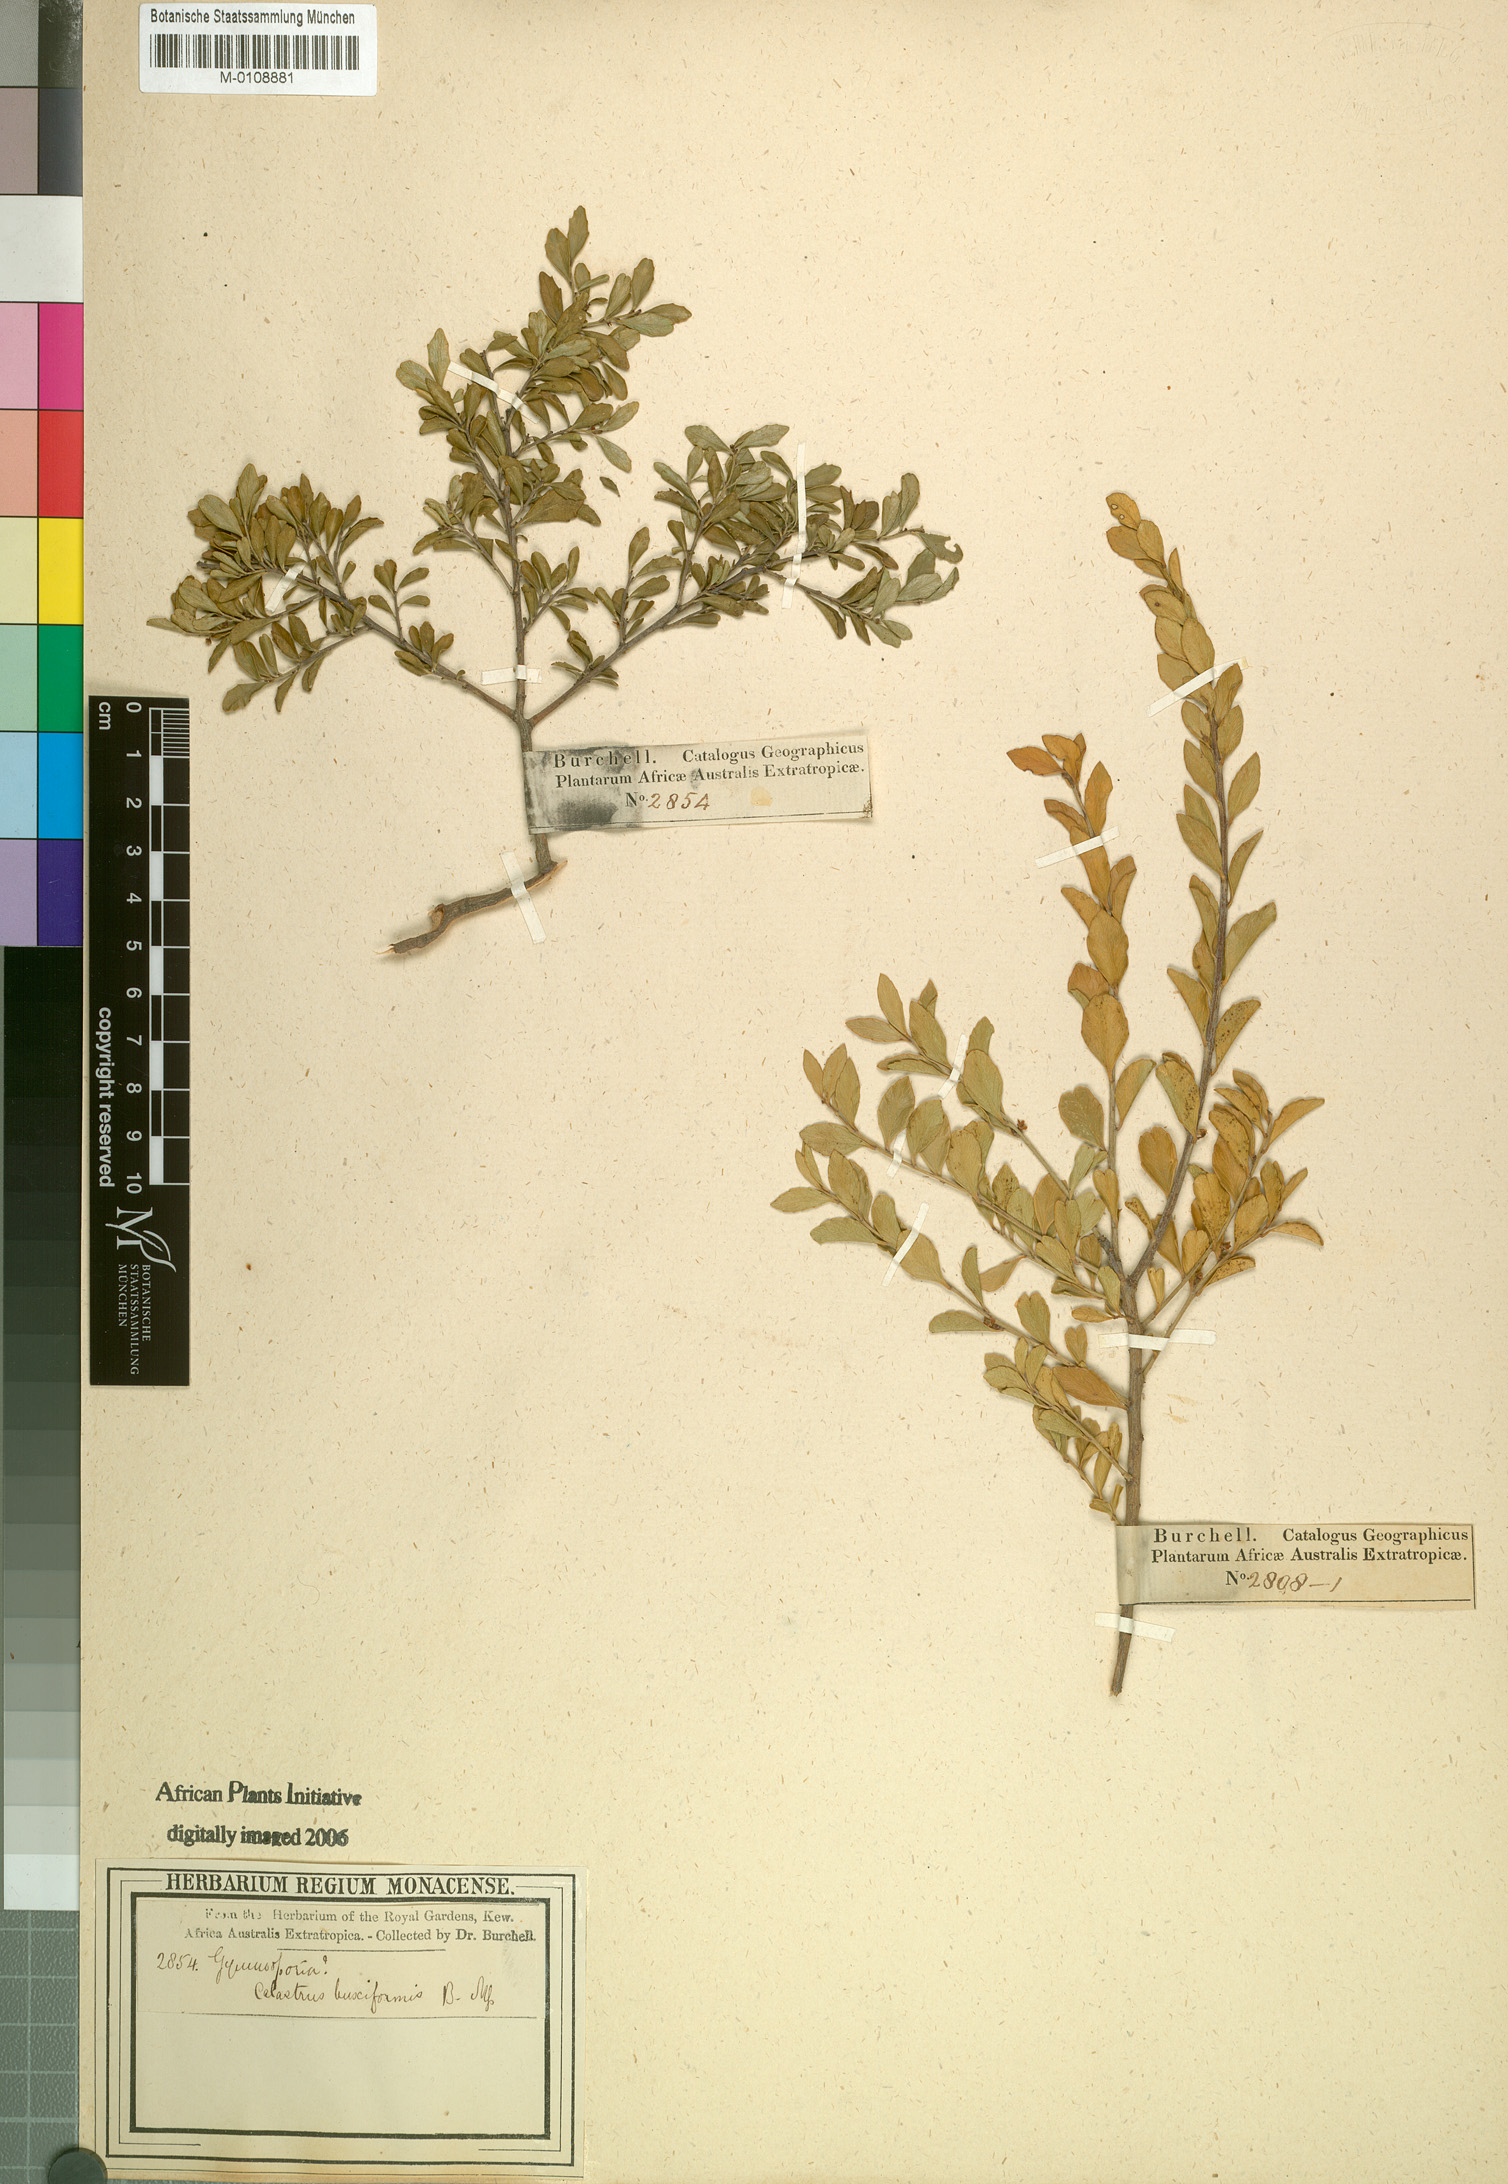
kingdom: Plantae
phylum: Tracheophyta
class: Magnoliopsida
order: Celastrales
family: Celastraceae
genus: Maytenus
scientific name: Maytenus
